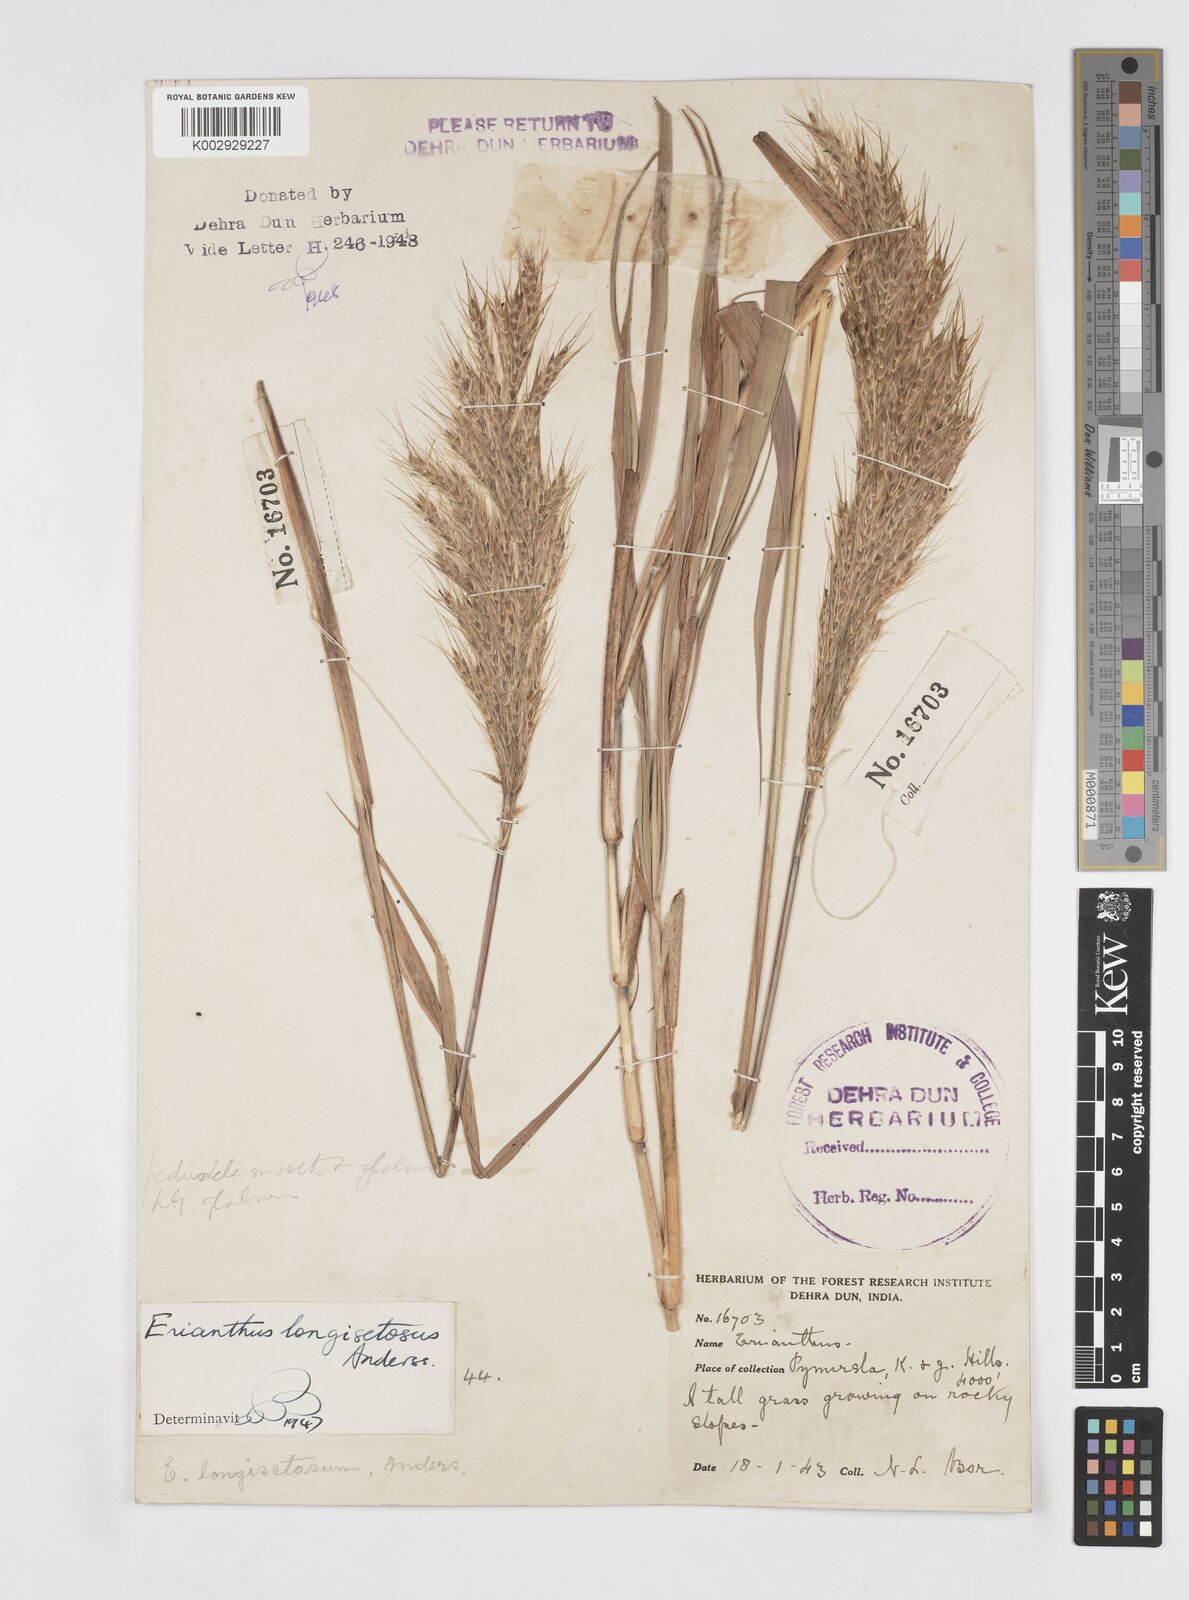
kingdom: Plantae
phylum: Tracheophyta
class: Liliopsida
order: Poales
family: Poaceae
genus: Melinis
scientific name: Melinis longiseta
